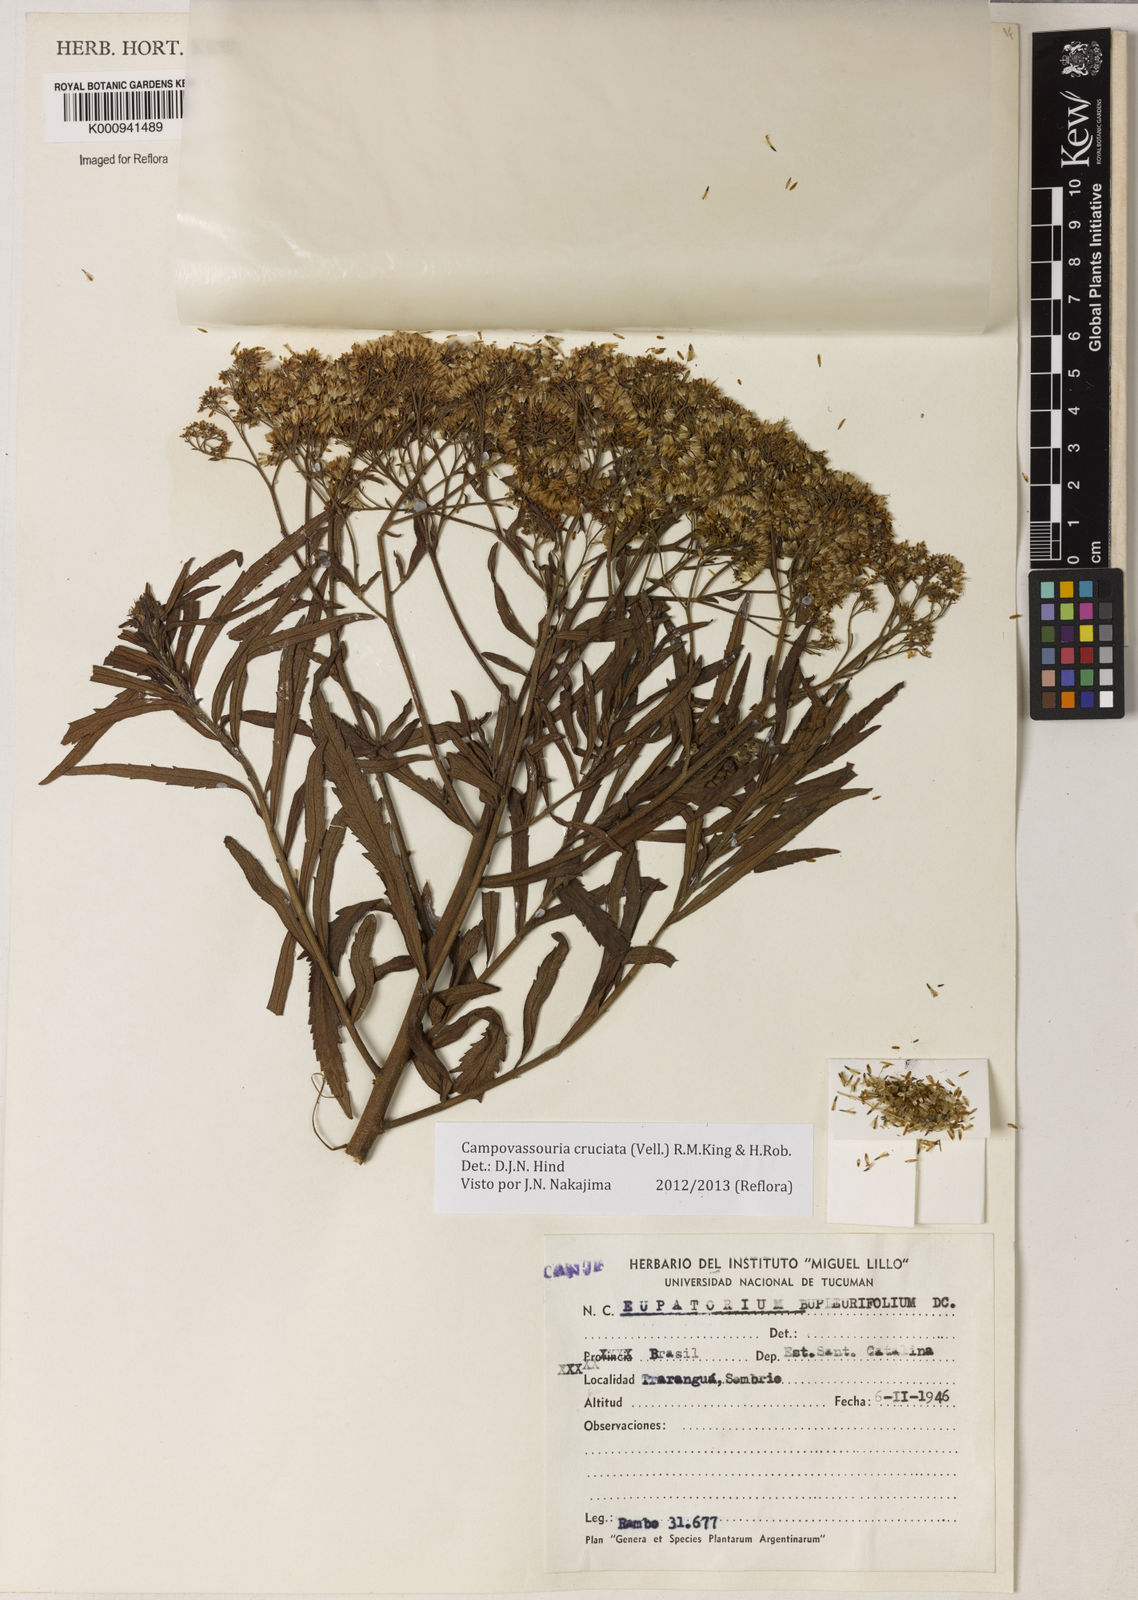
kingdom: Plantae
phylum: Tracheophyta
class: Magnoliopsida
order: Asterales
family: Asteraceae
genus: Campovassouria
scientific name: Campovassouria cruciata
